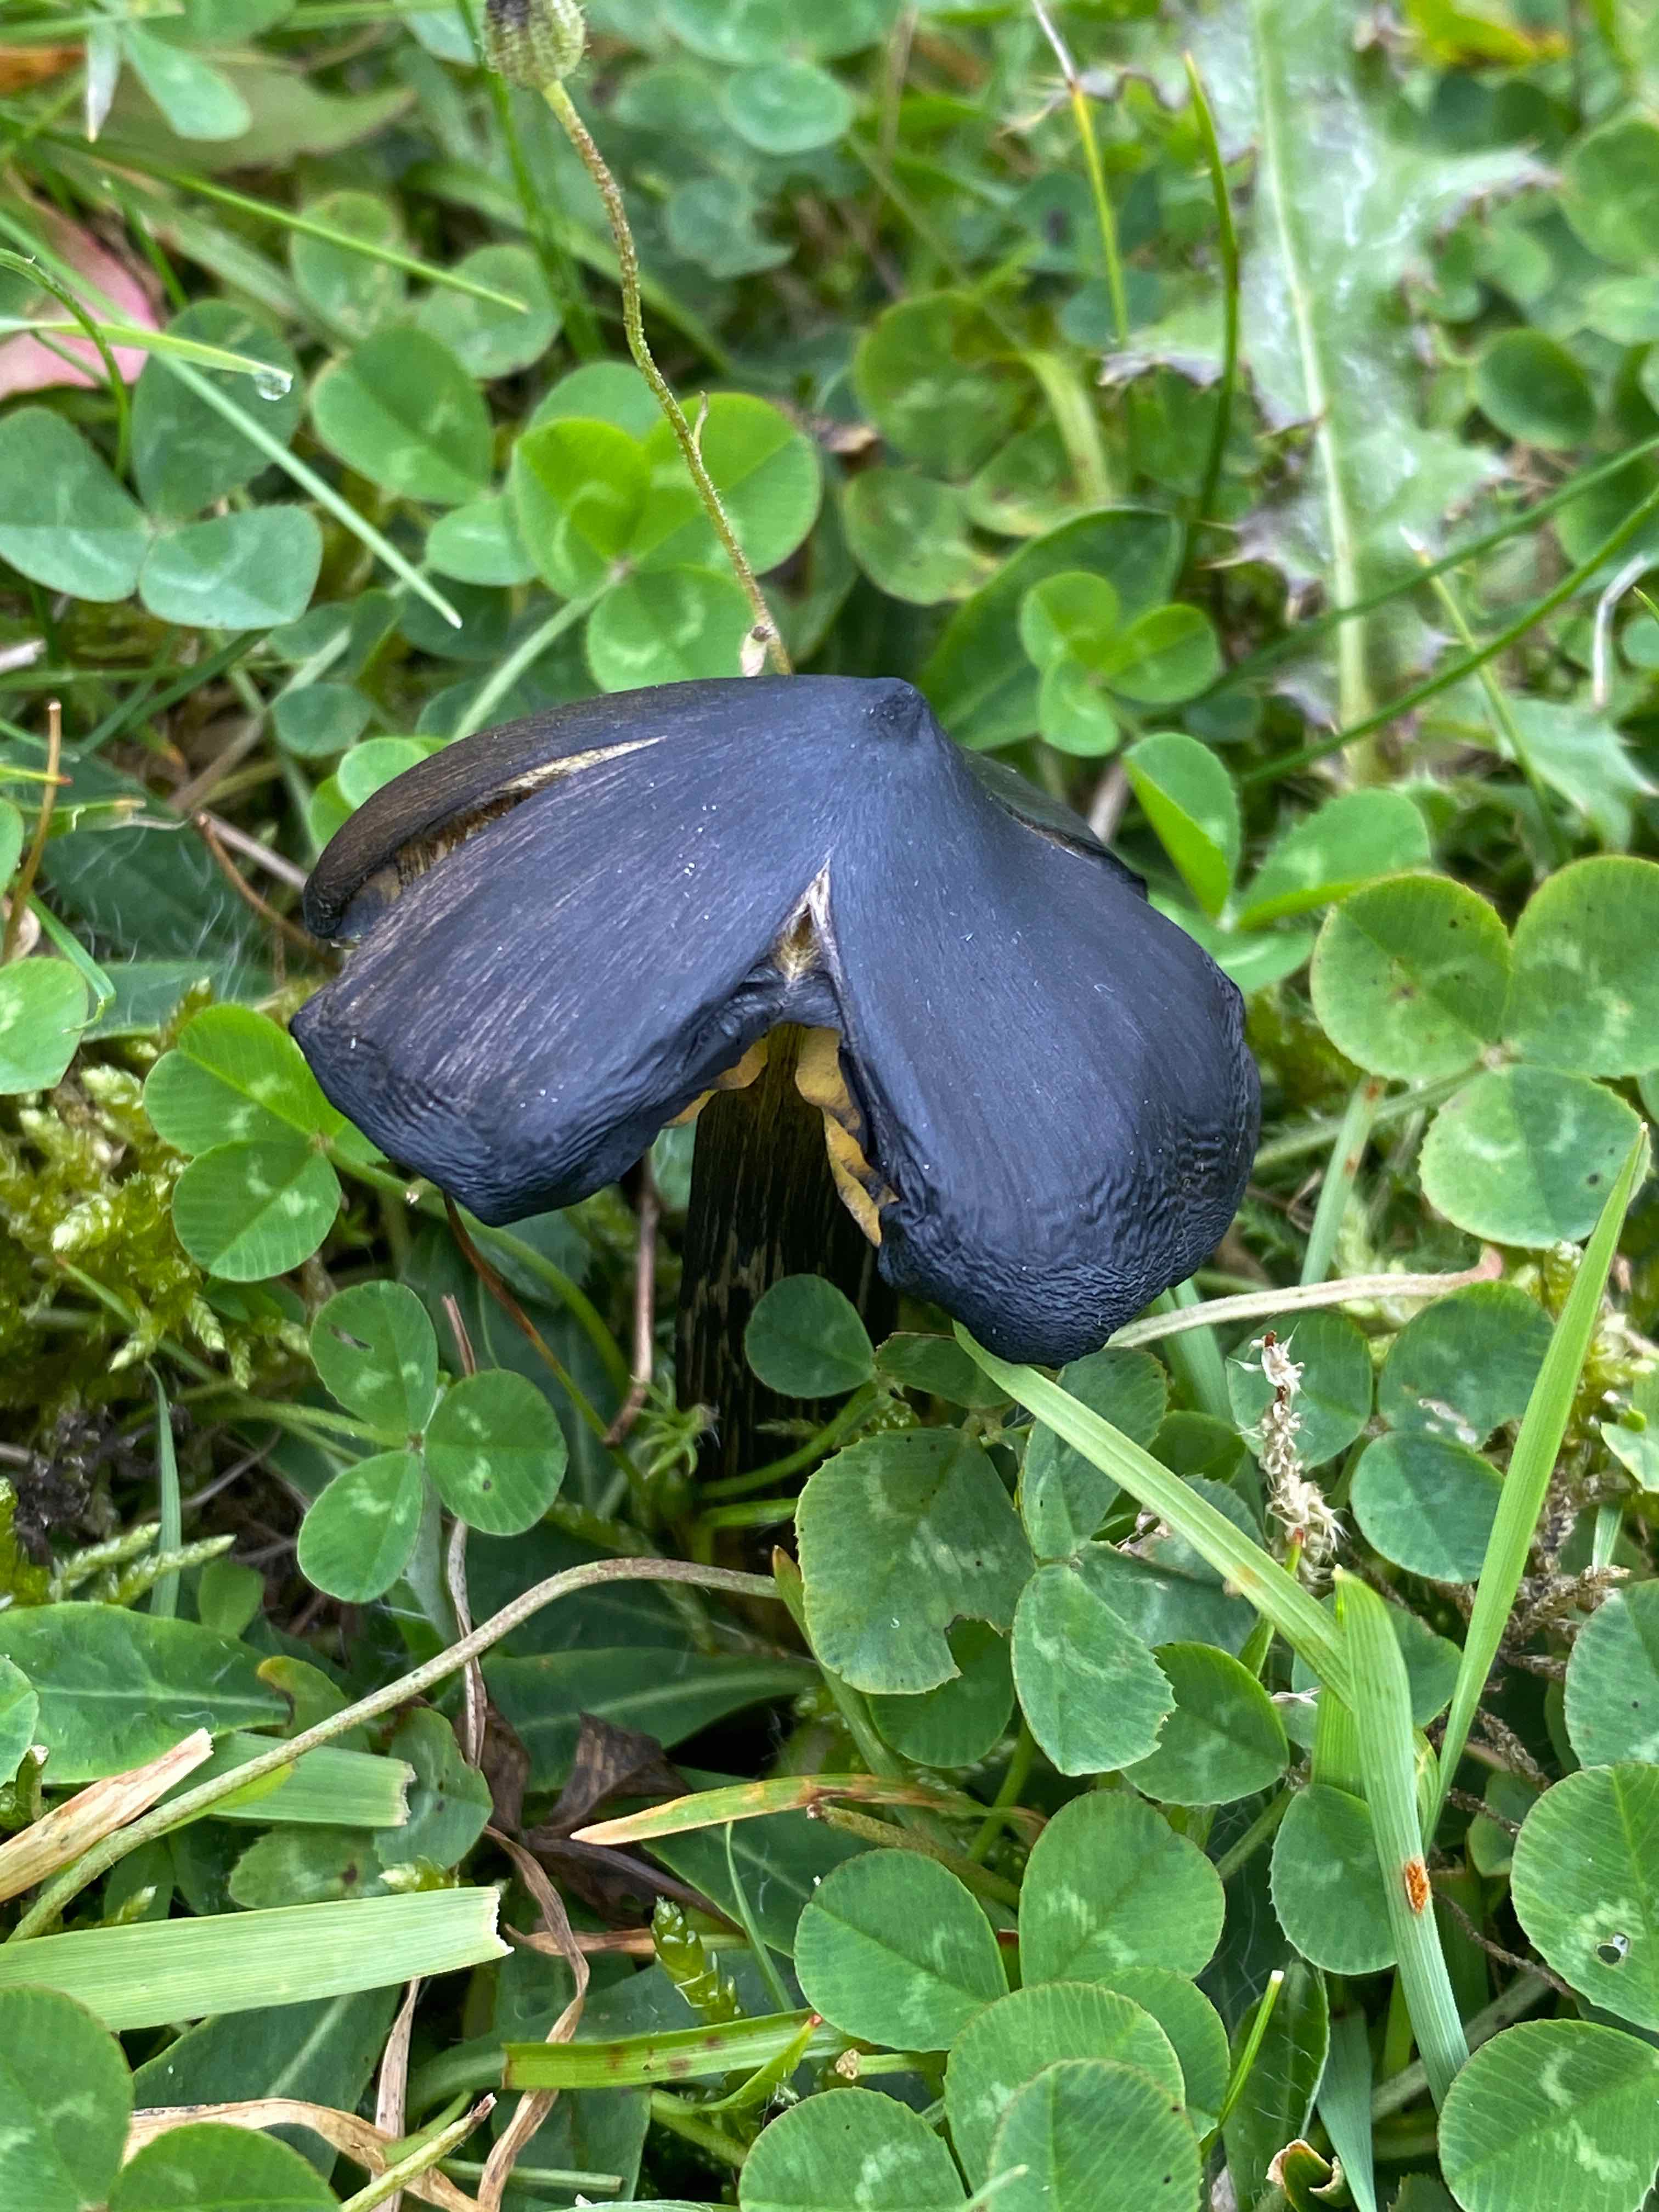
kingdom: Fungi
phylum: Basidiomycota
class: Agaricomycetes
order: Agaricales
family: Hygrophoraceae
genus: Hygrocybe
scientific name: Hygrocybe conica
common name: kegle-vokshat
